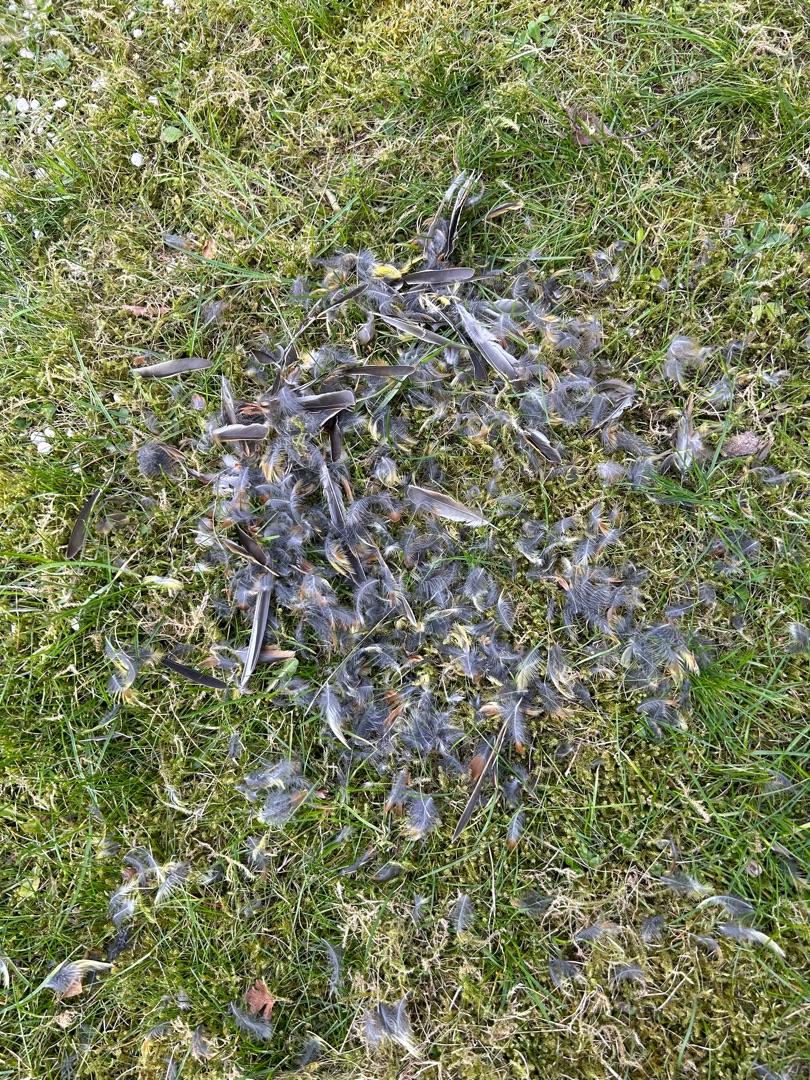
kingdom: Animalia
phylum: Chordata
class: Aves
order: Passeriformes
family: Emberizidae
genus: Emberiza
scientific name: Emberiza citrinella
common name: Gulspurv
